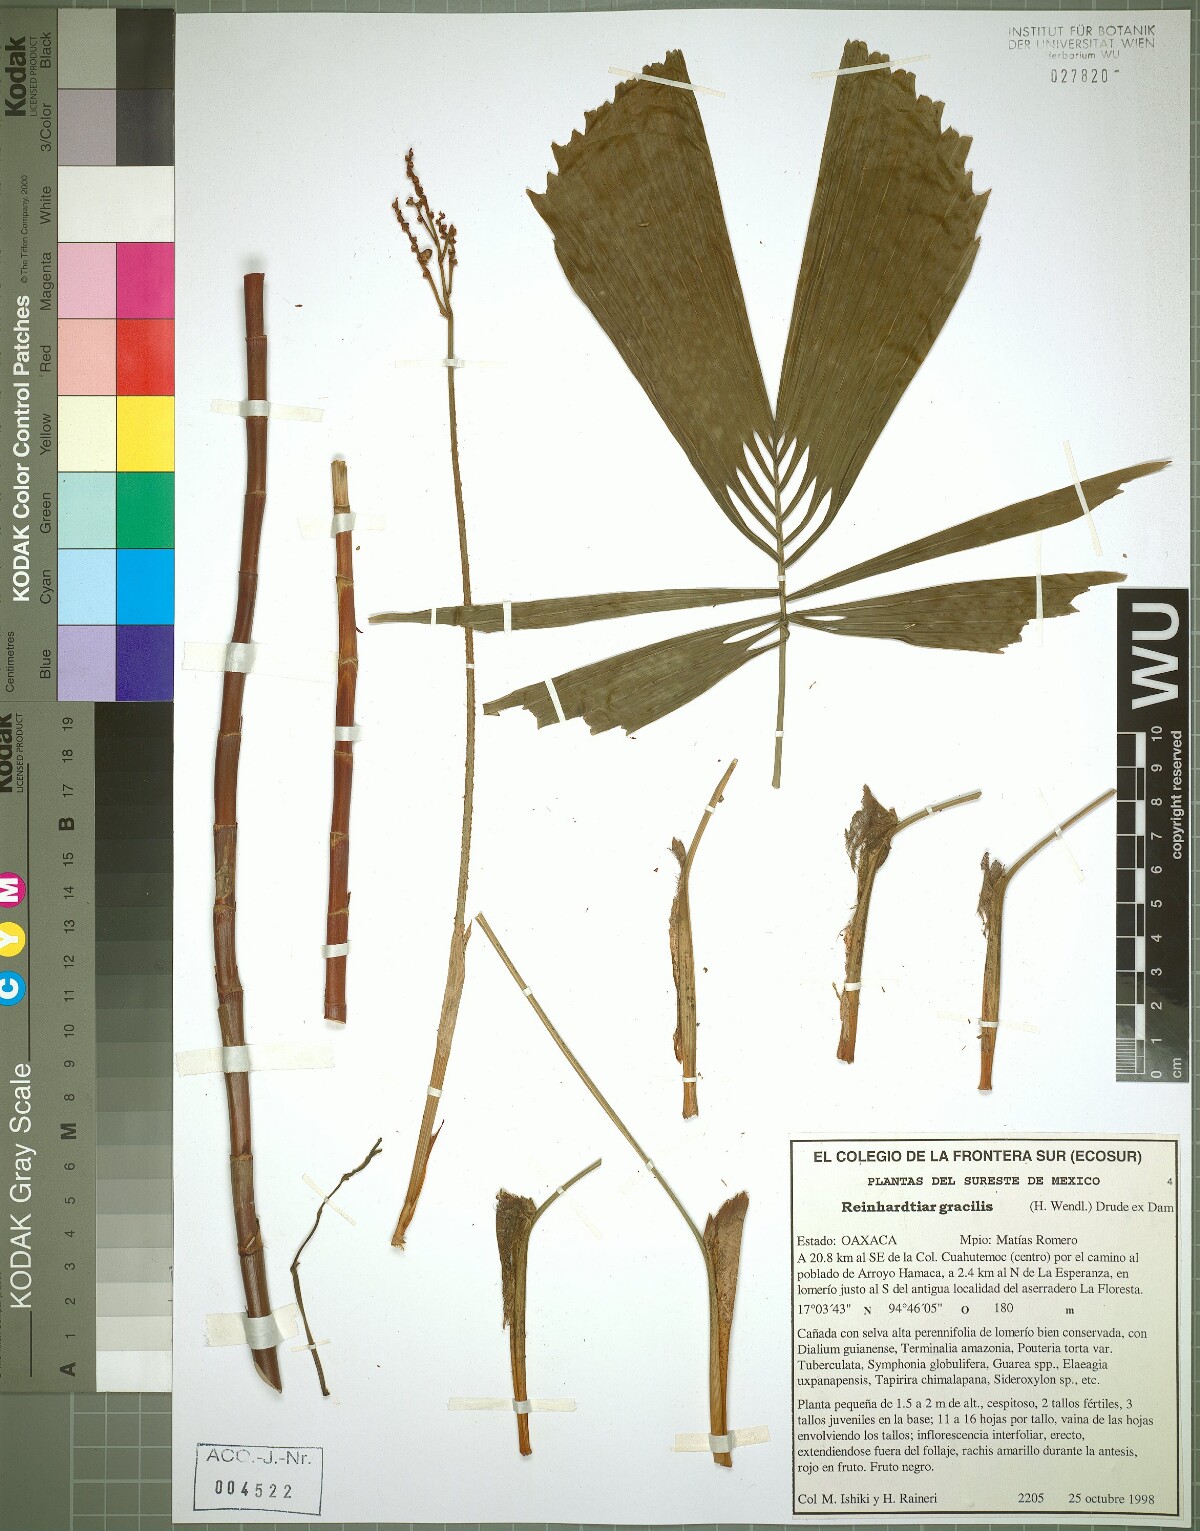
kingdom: Plantae
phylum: Tracheophyta
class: Liliopsida
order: Arecales
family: Arecaceae
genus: Reinhardtia
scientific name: Reinhardtia gracilis
